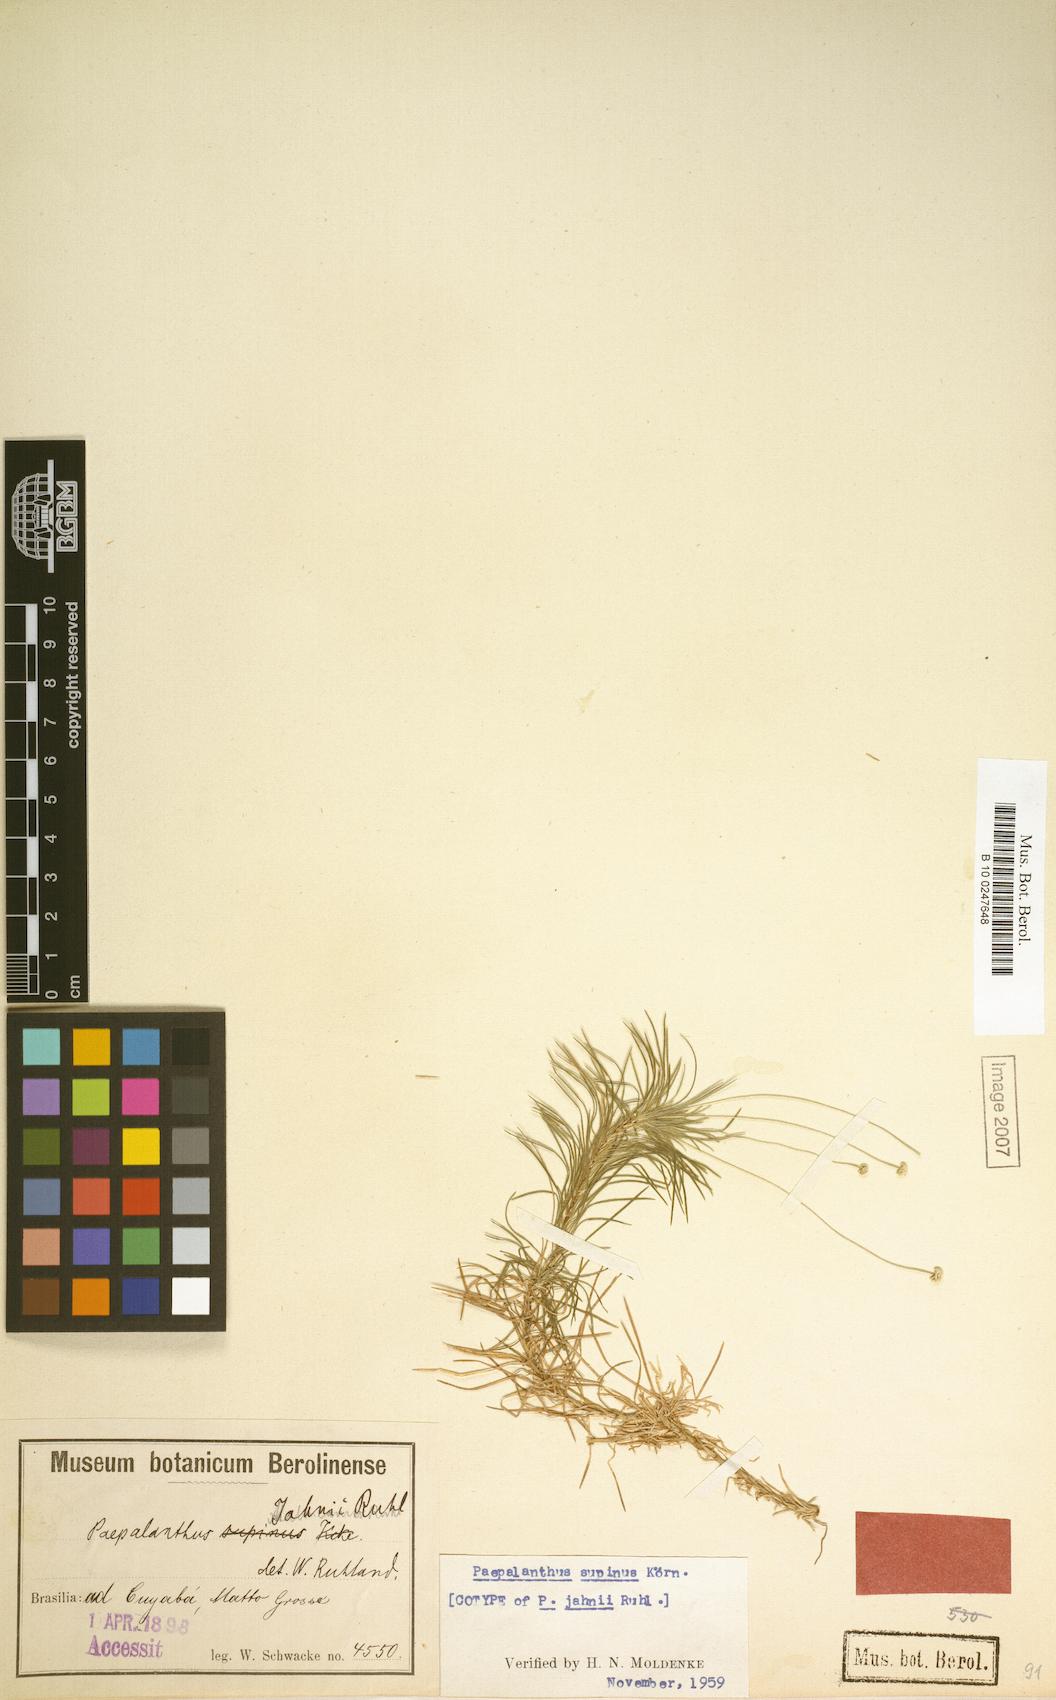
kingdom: Plantae
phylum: Tracheophyta
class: Liliopsida
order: Poales
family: Eriocaulaceae
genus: Paepalanthus
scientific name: Paepalanthus supinus
